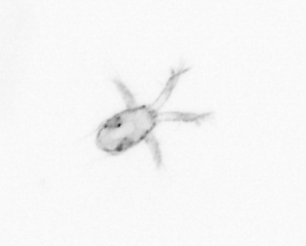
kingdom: Animalia
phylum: Arthropoda
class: Copepoda
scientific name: Copepoda
